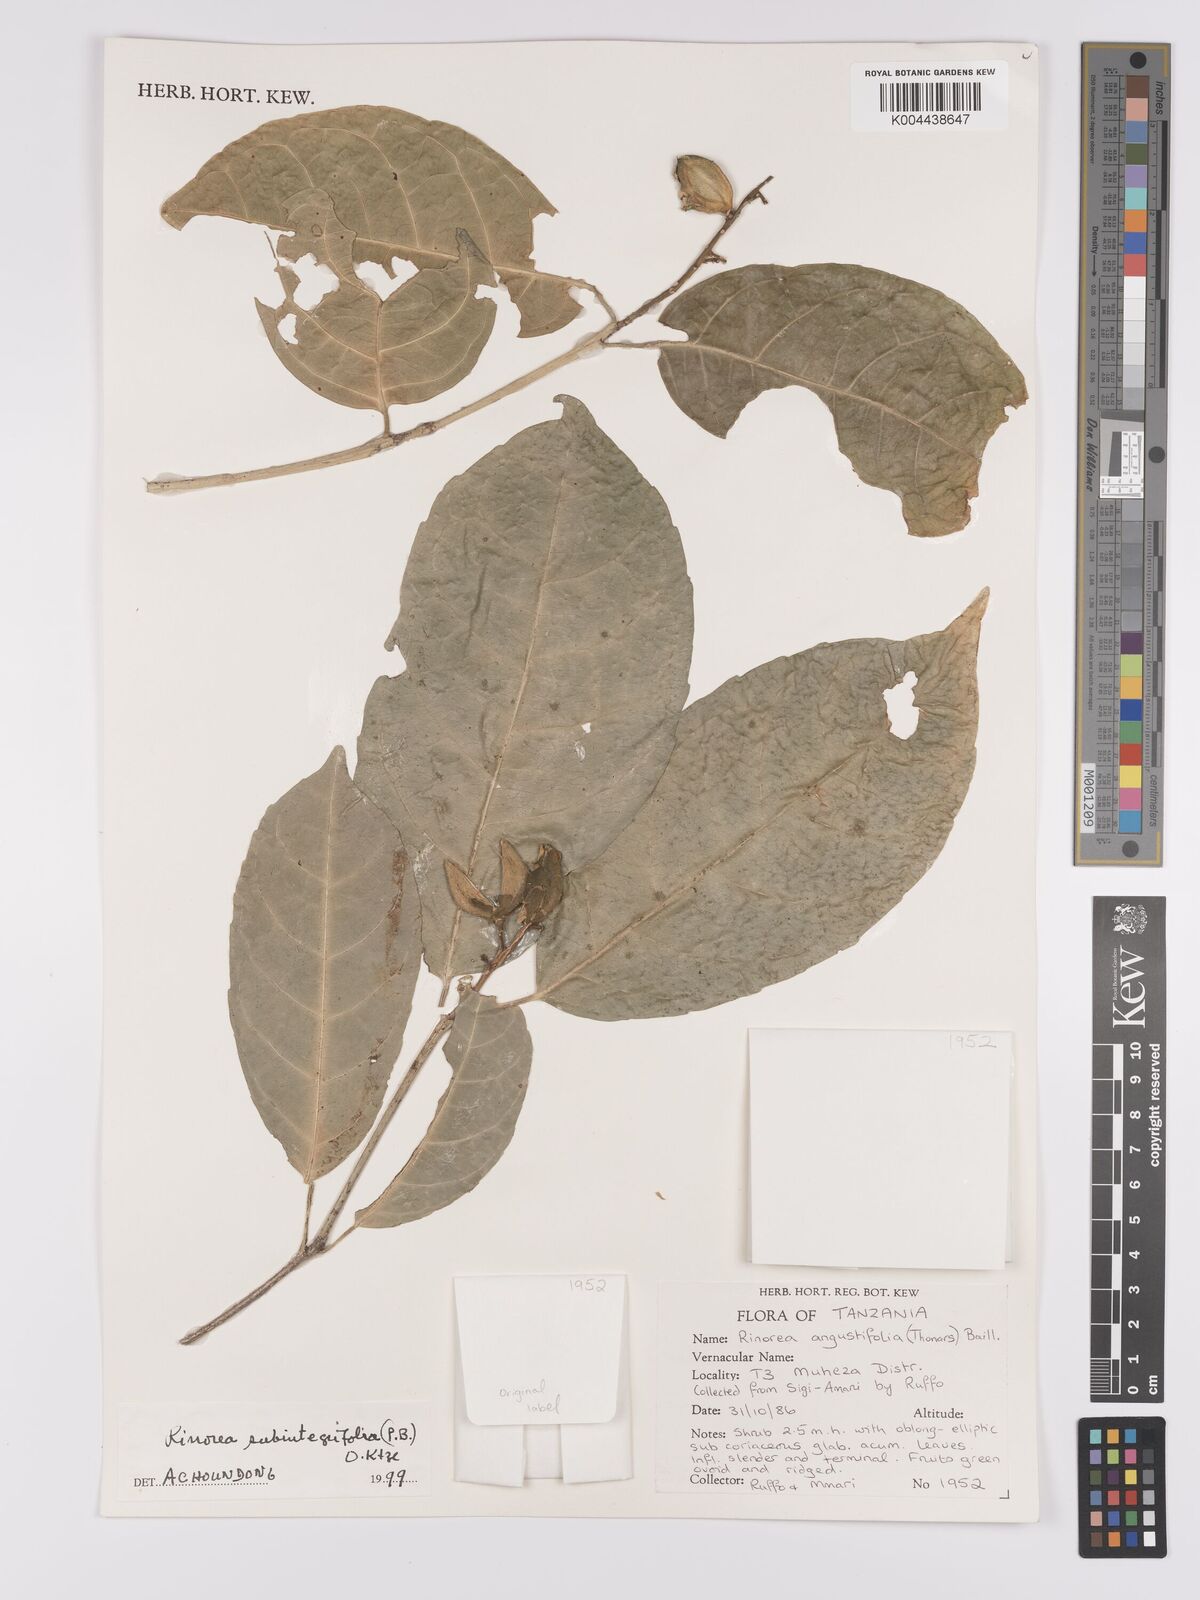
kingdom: Plantae
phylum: Tracheophyta
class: Magnoliopsida
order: Apiales
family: Pittosporaceae
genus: Marianthus
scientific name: Marianthus coeruleopunctatus
